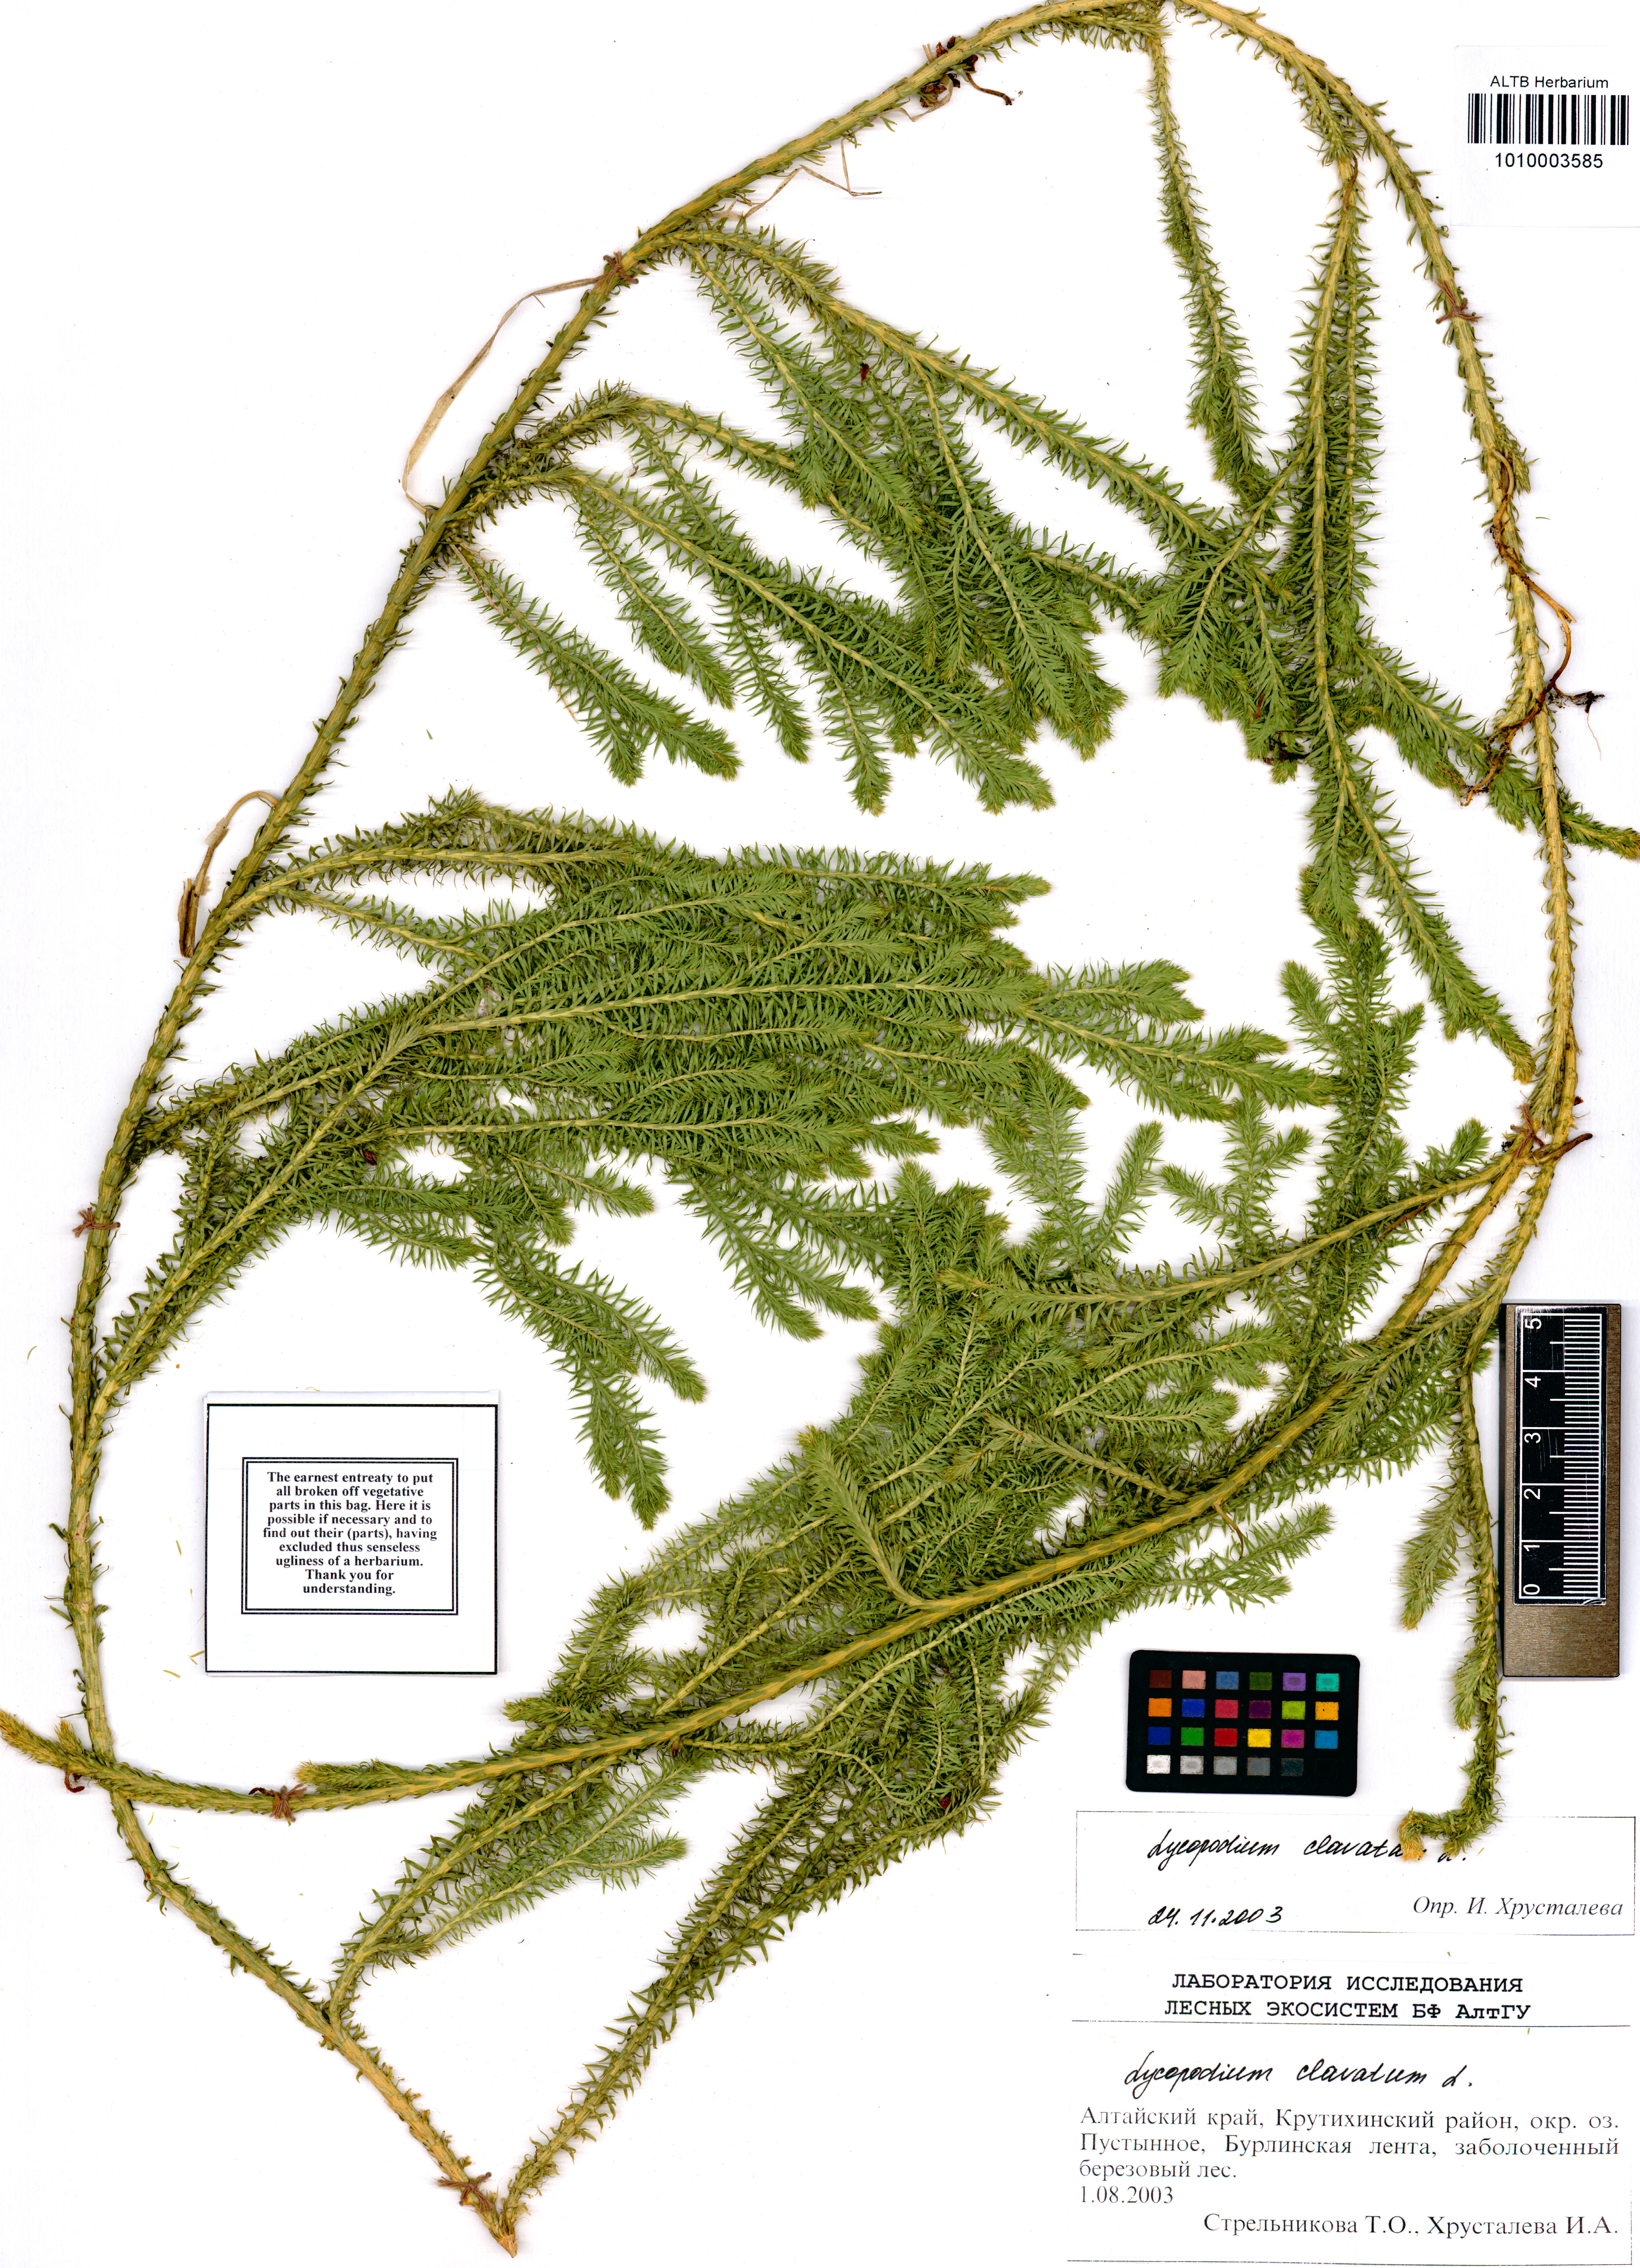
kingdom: Plantae
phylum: Tracheophyta
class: Lycopodiopsida
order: Lycopodiales
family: Lycopodiaceae
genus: Lycopodium
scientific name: Lycopodium clavatum
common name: Stag's-horn clubmoss
